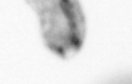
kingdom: Animalia
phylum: Arthropoda
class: Copepoda
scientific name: Copepoda
